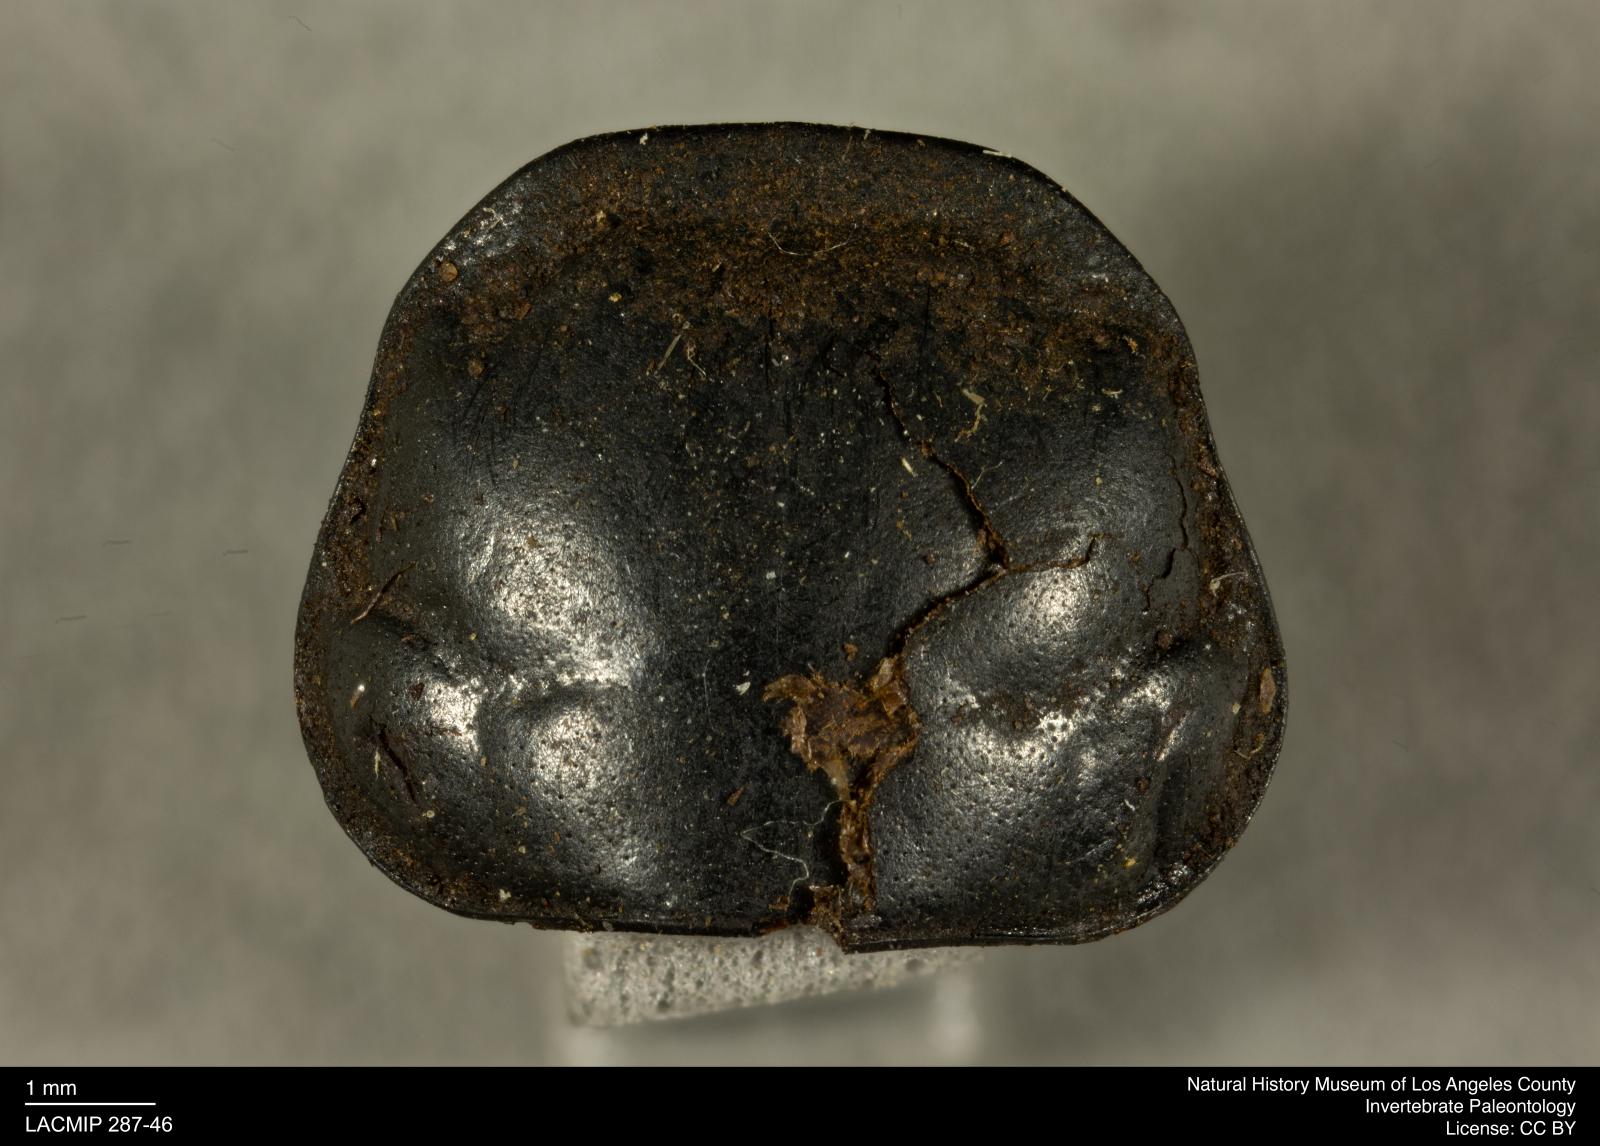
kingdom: Animalia
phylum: Arthropoda
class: Insecta
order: Coleoptera
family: Staphylinidae
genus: Nicrophorus
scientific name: Nicrophorus marginatus
